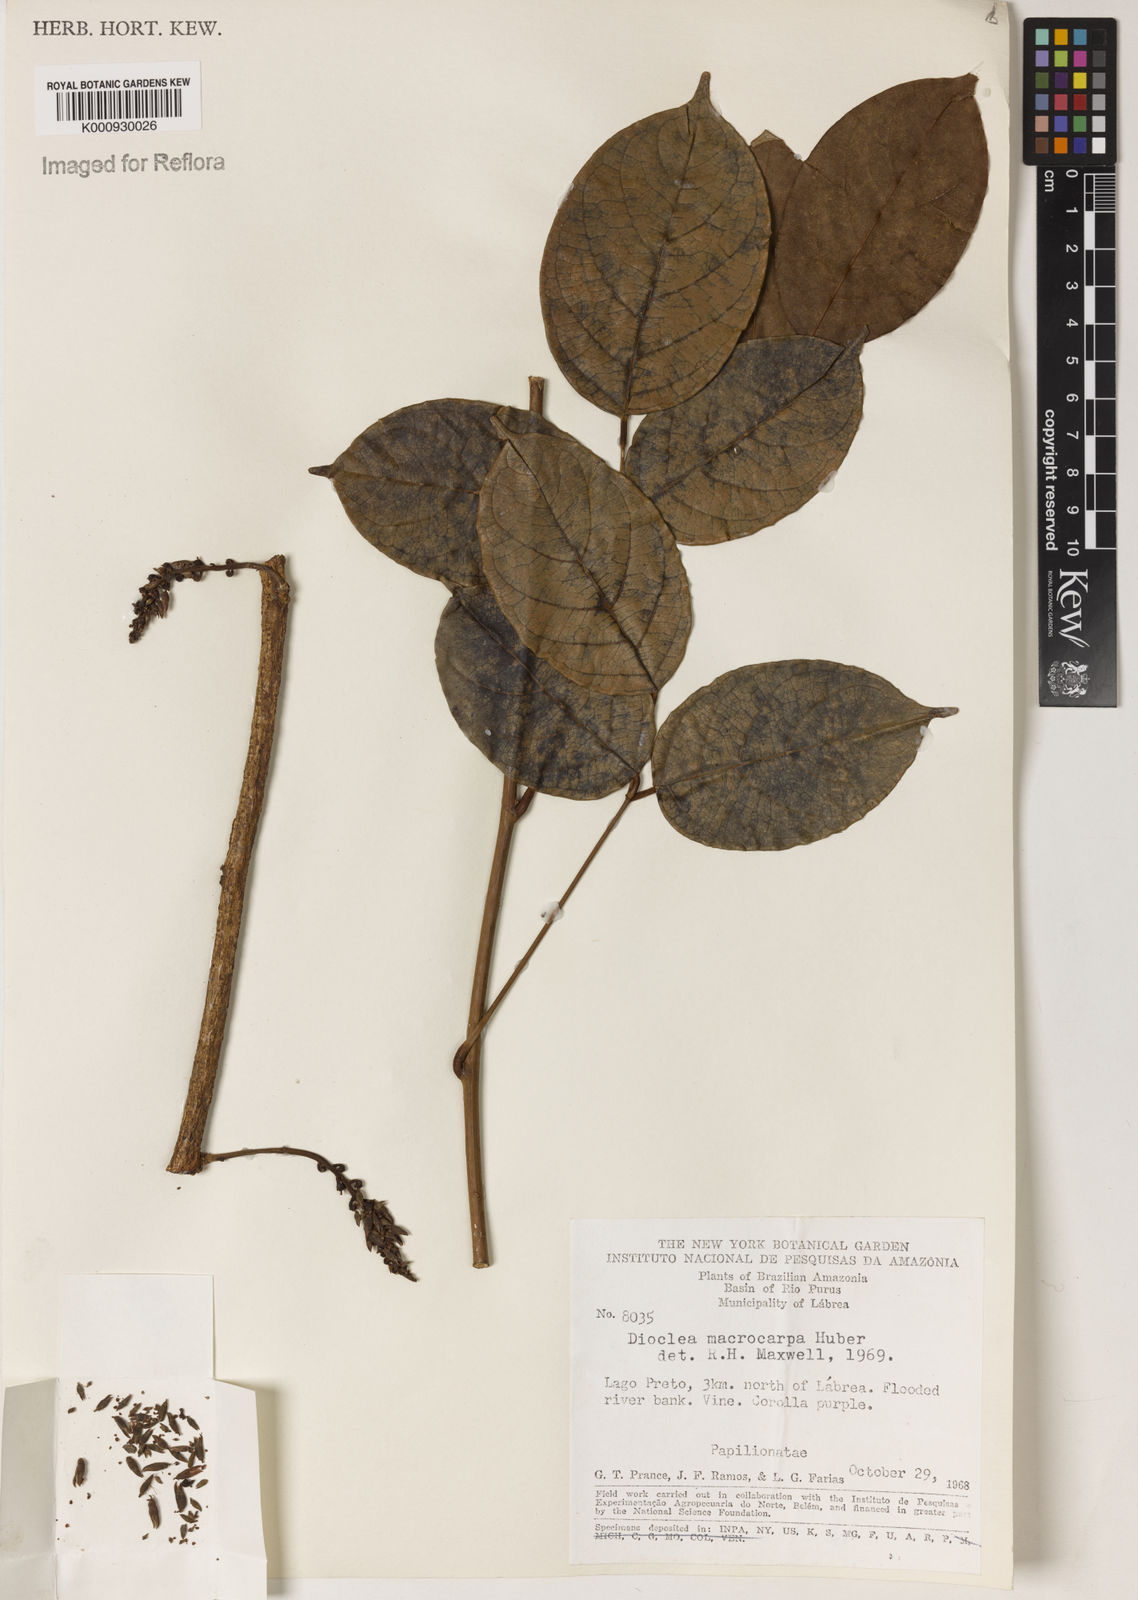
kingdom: Plantae
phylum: Tracheophyta
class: Magnoliopsida
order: Fabales
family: Fabaceae
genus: Macropsychanthus
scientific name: Macropsychanthus macrocarpus
